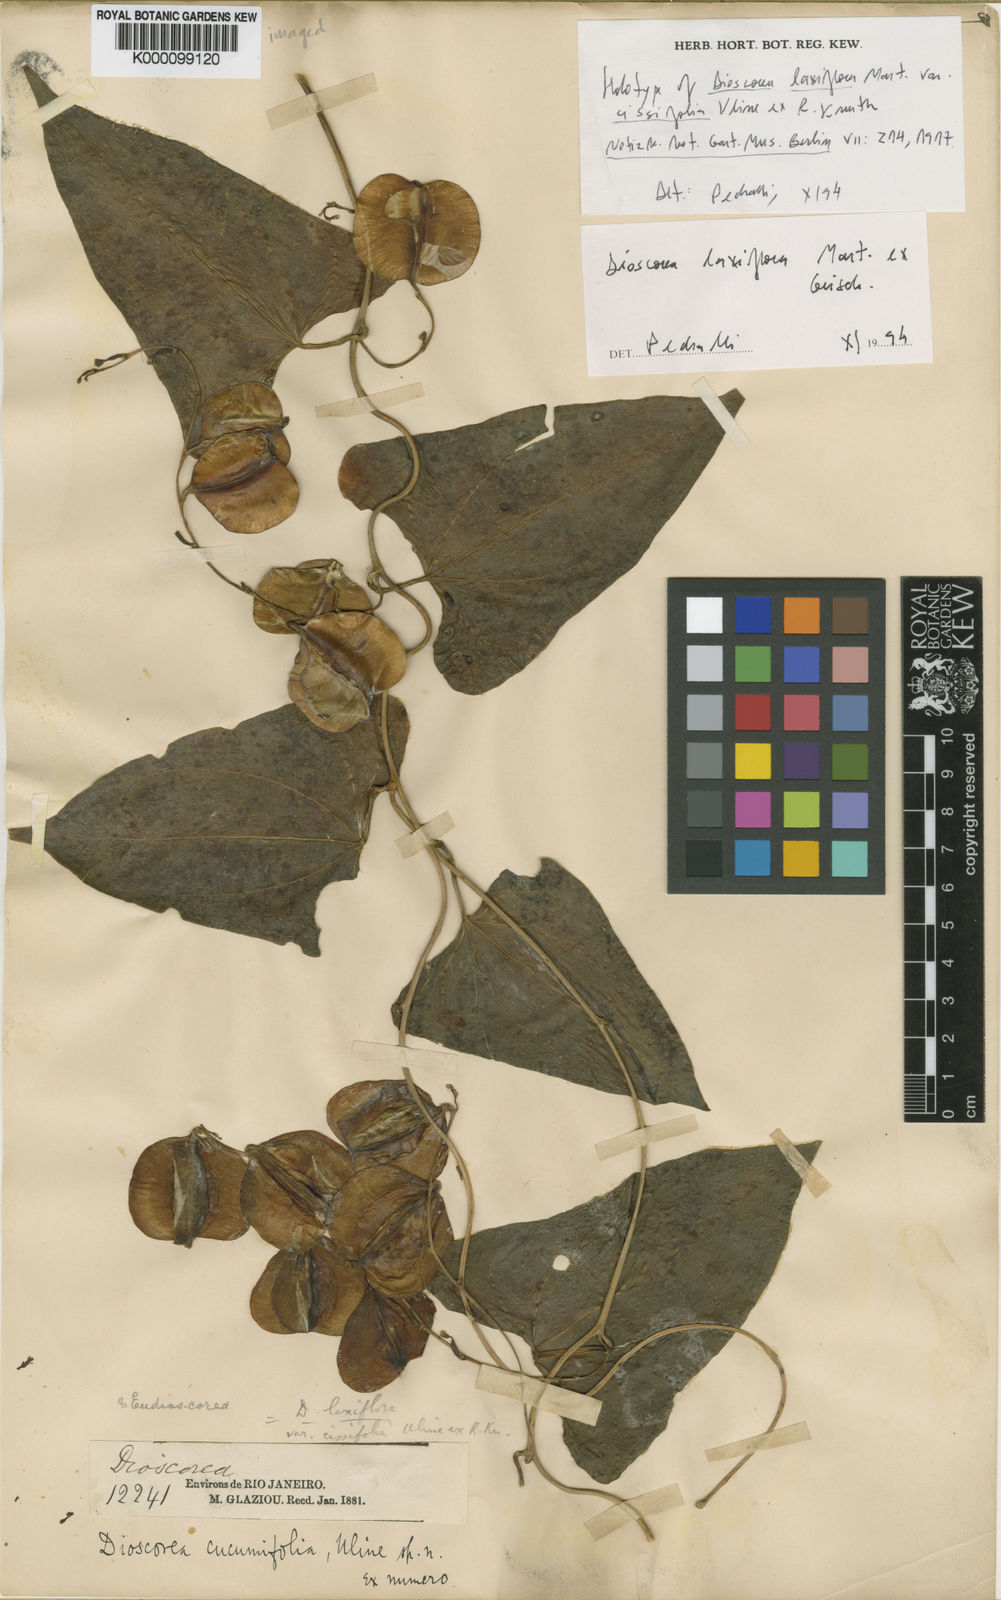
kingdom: Plantae
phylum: Tracheophyta
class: Liliopsida
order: Dioscoreales
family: Dioscoreaceae
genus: Dioscorea
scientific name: Dioscorea laxiflora
